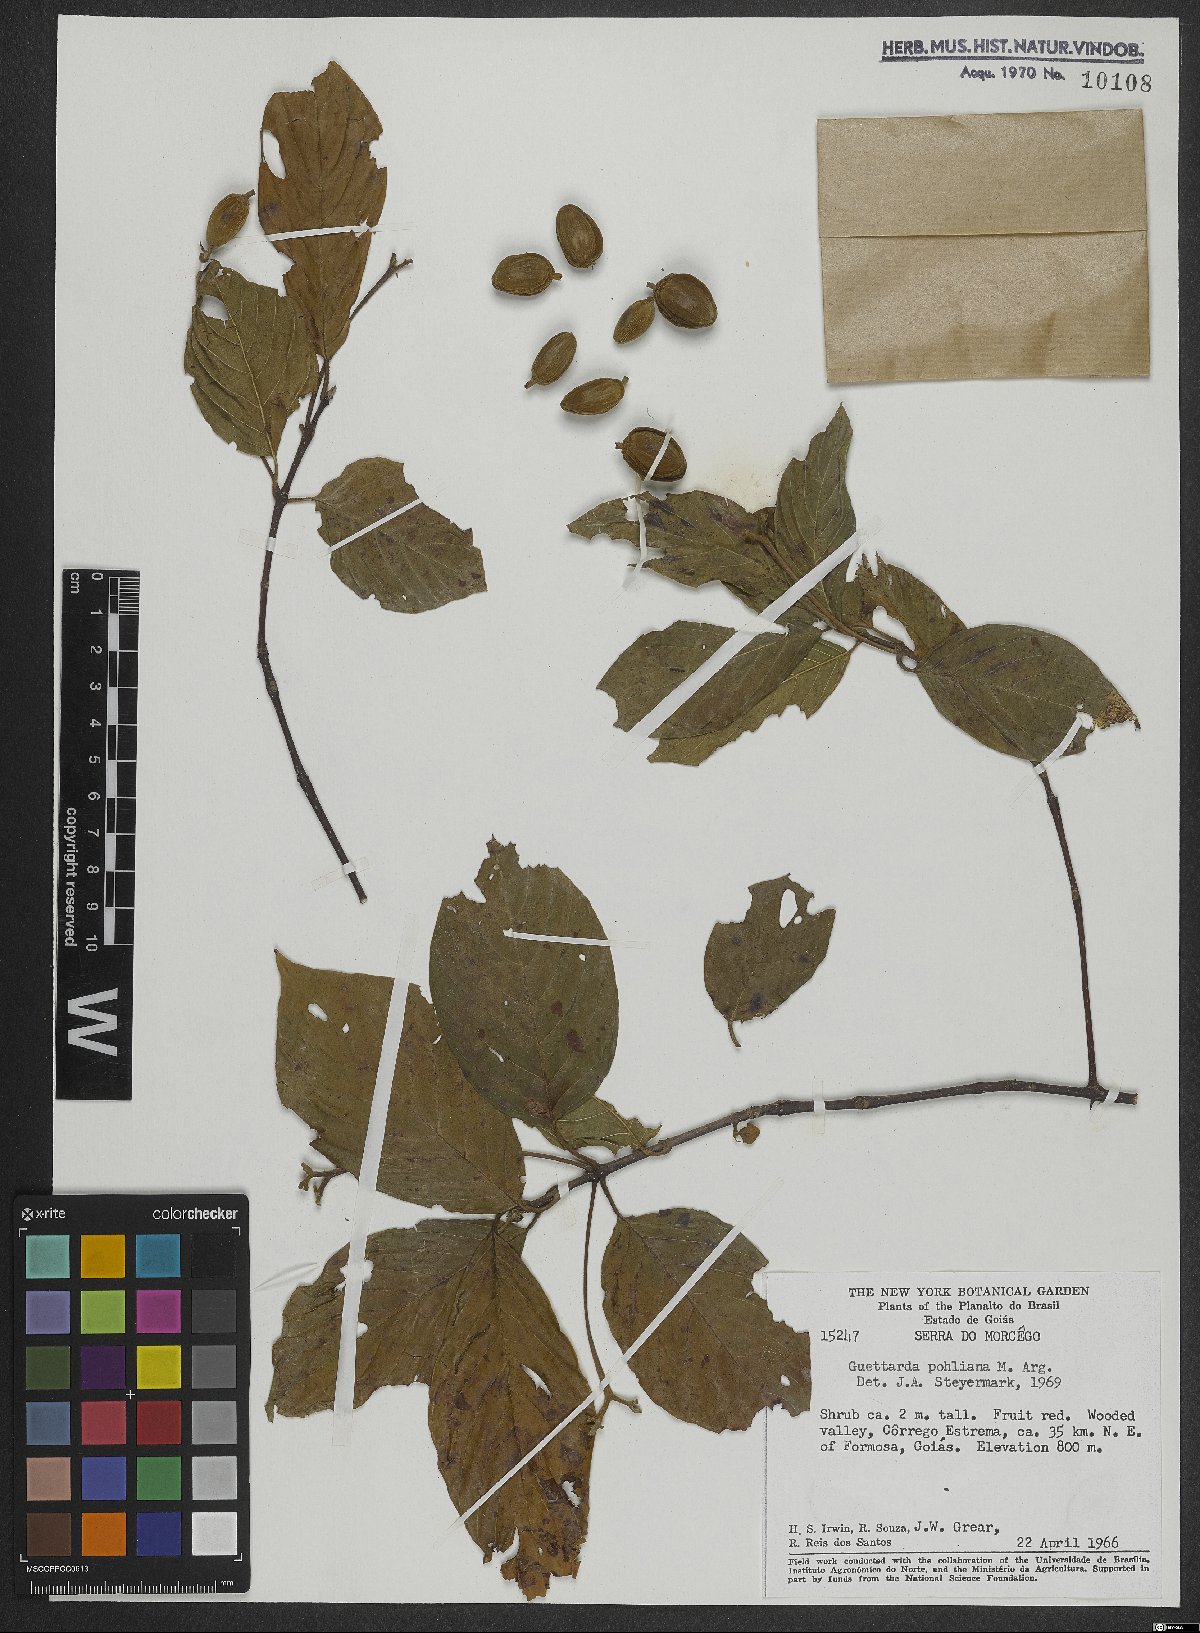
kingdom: Plantae
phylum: Tracheophyta
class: Magnoliopsida
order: Gentianales
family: Rubiaceae
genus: Guettarda
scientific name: Guettarda pohliana
